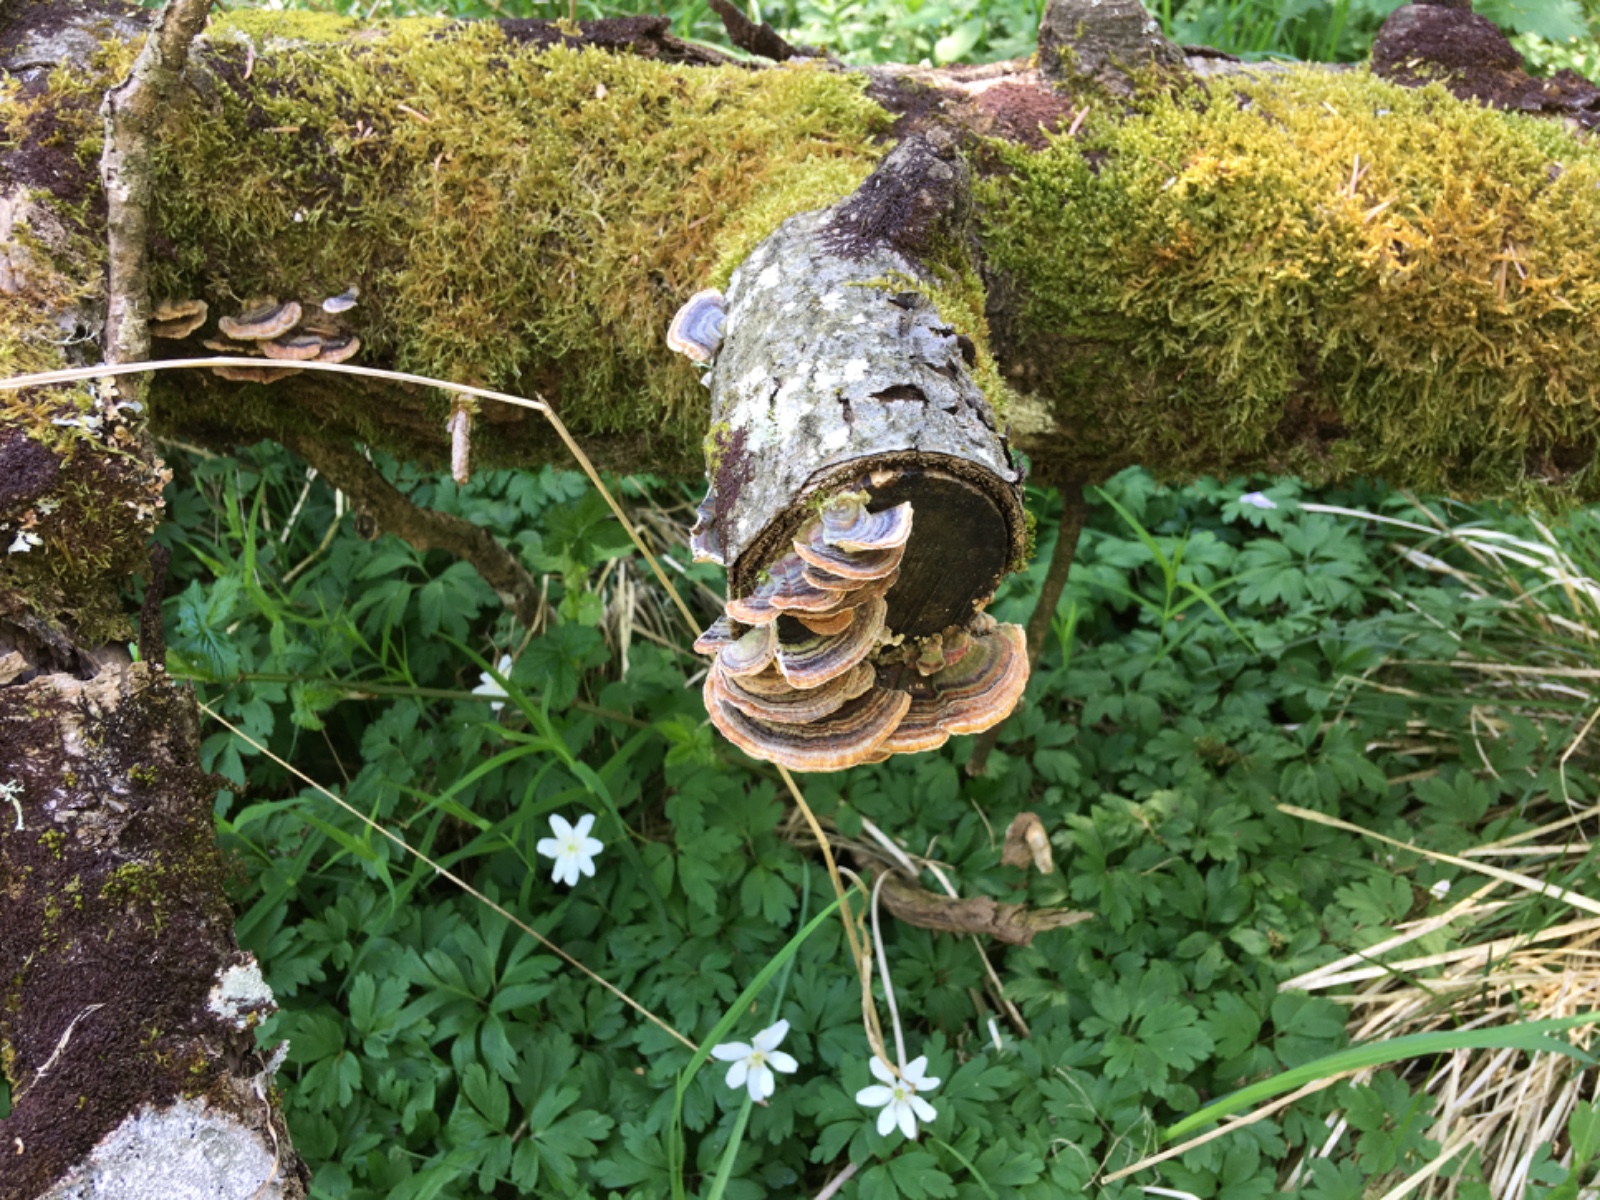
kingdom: Fungi
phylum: Basidiomycota
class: Agaricomycetes
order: Polyporales
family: Polyporaceae
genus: Trametes
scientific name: Trametes versicolor
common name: broget læderporesvamp
